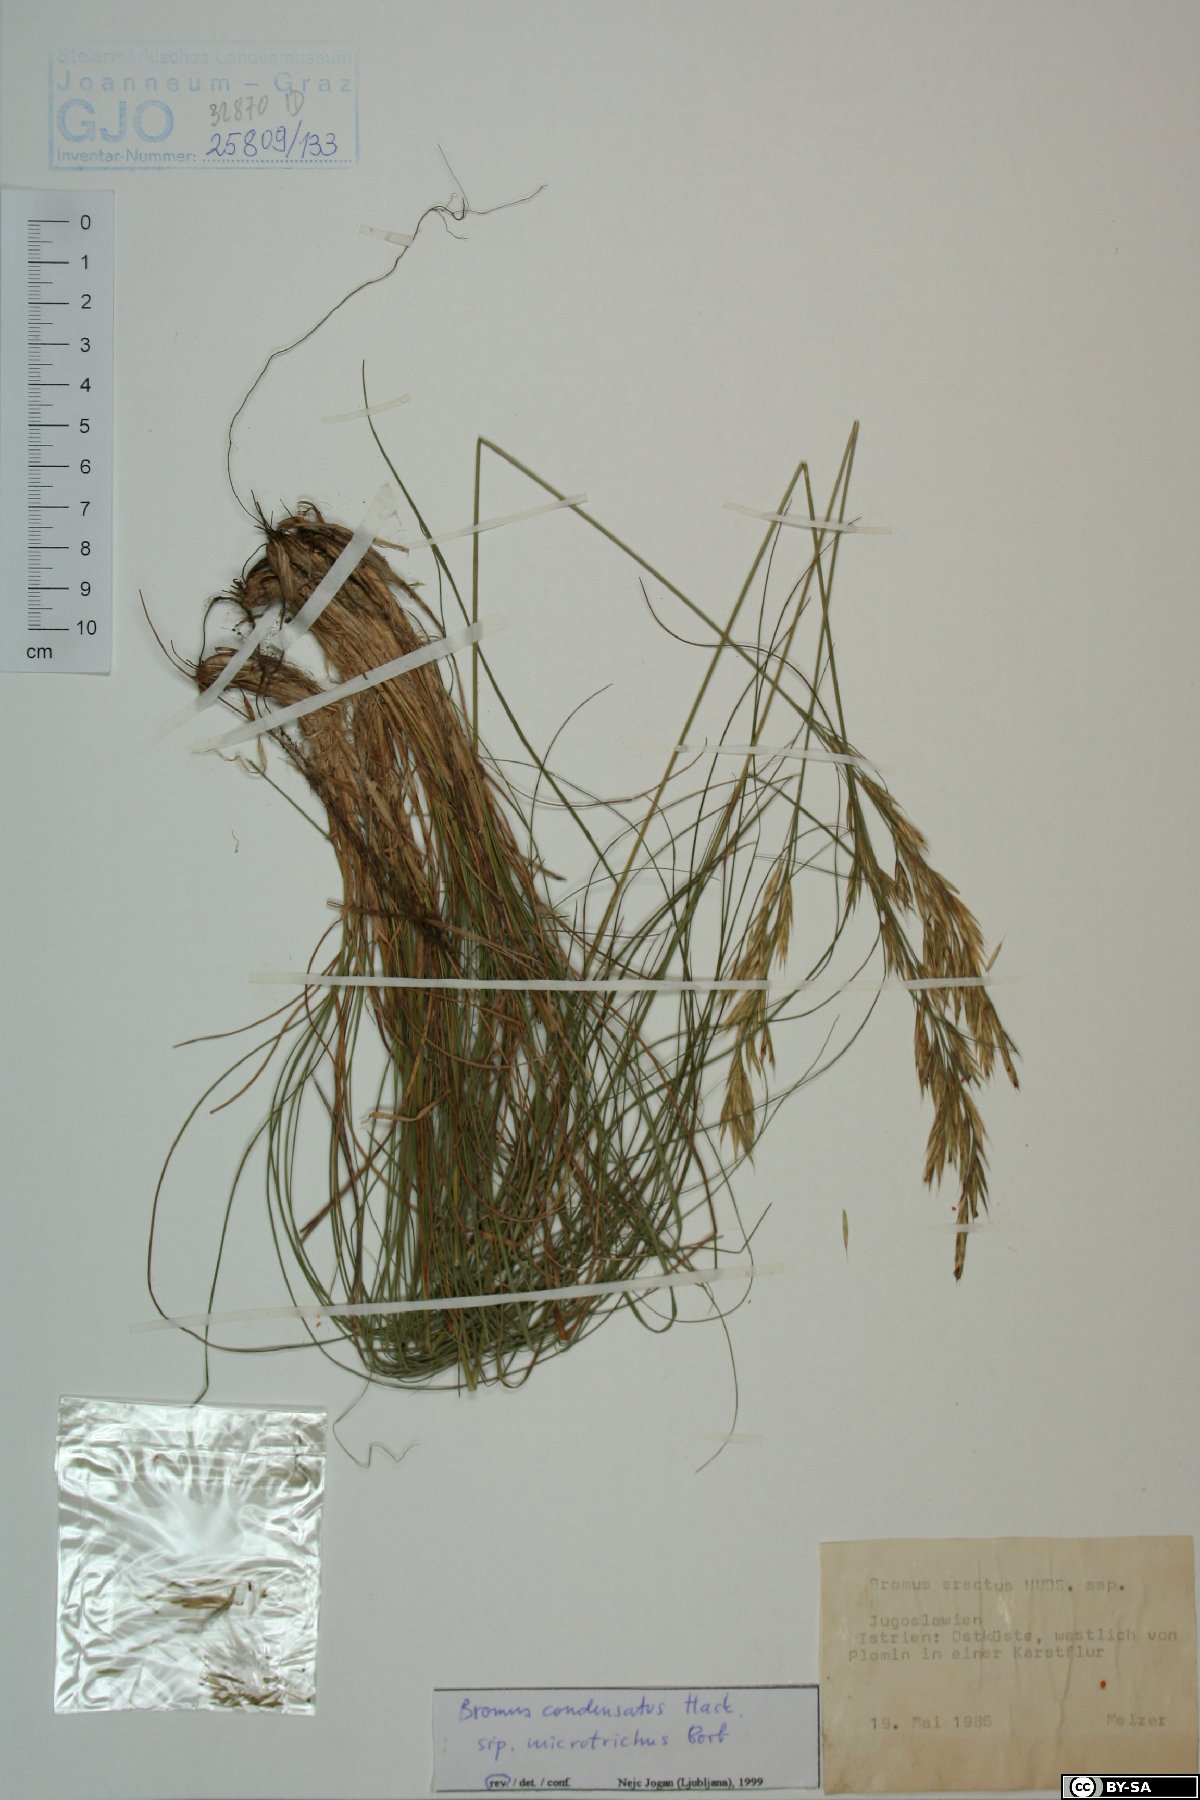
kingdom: Plantae
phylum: Tracheophyta
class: Liliopsida
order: Poales
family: Poaceae
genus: Bromus
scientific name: Bromus condensatus
